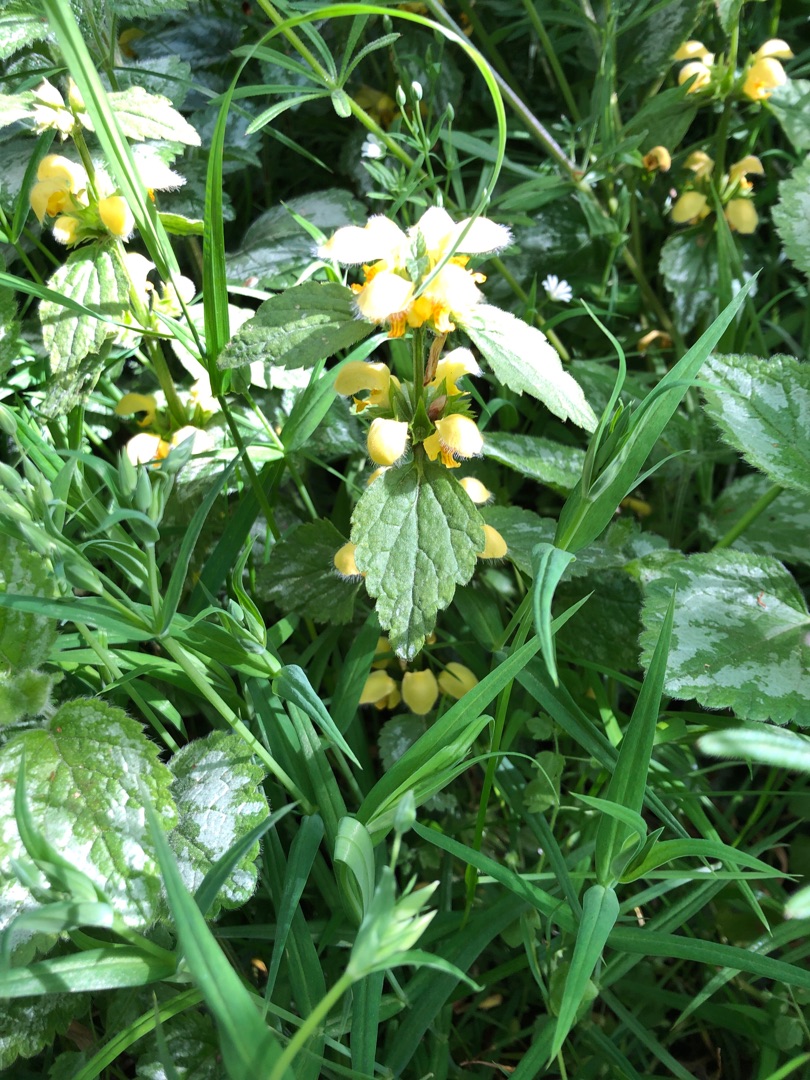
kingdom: Plantae
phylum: Tracheophyta
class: Magnoliopsida
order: Lamiales
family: Lamiaceae
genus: Lamium
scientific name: Lamium galeobdolon
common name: Have-guldnælde
